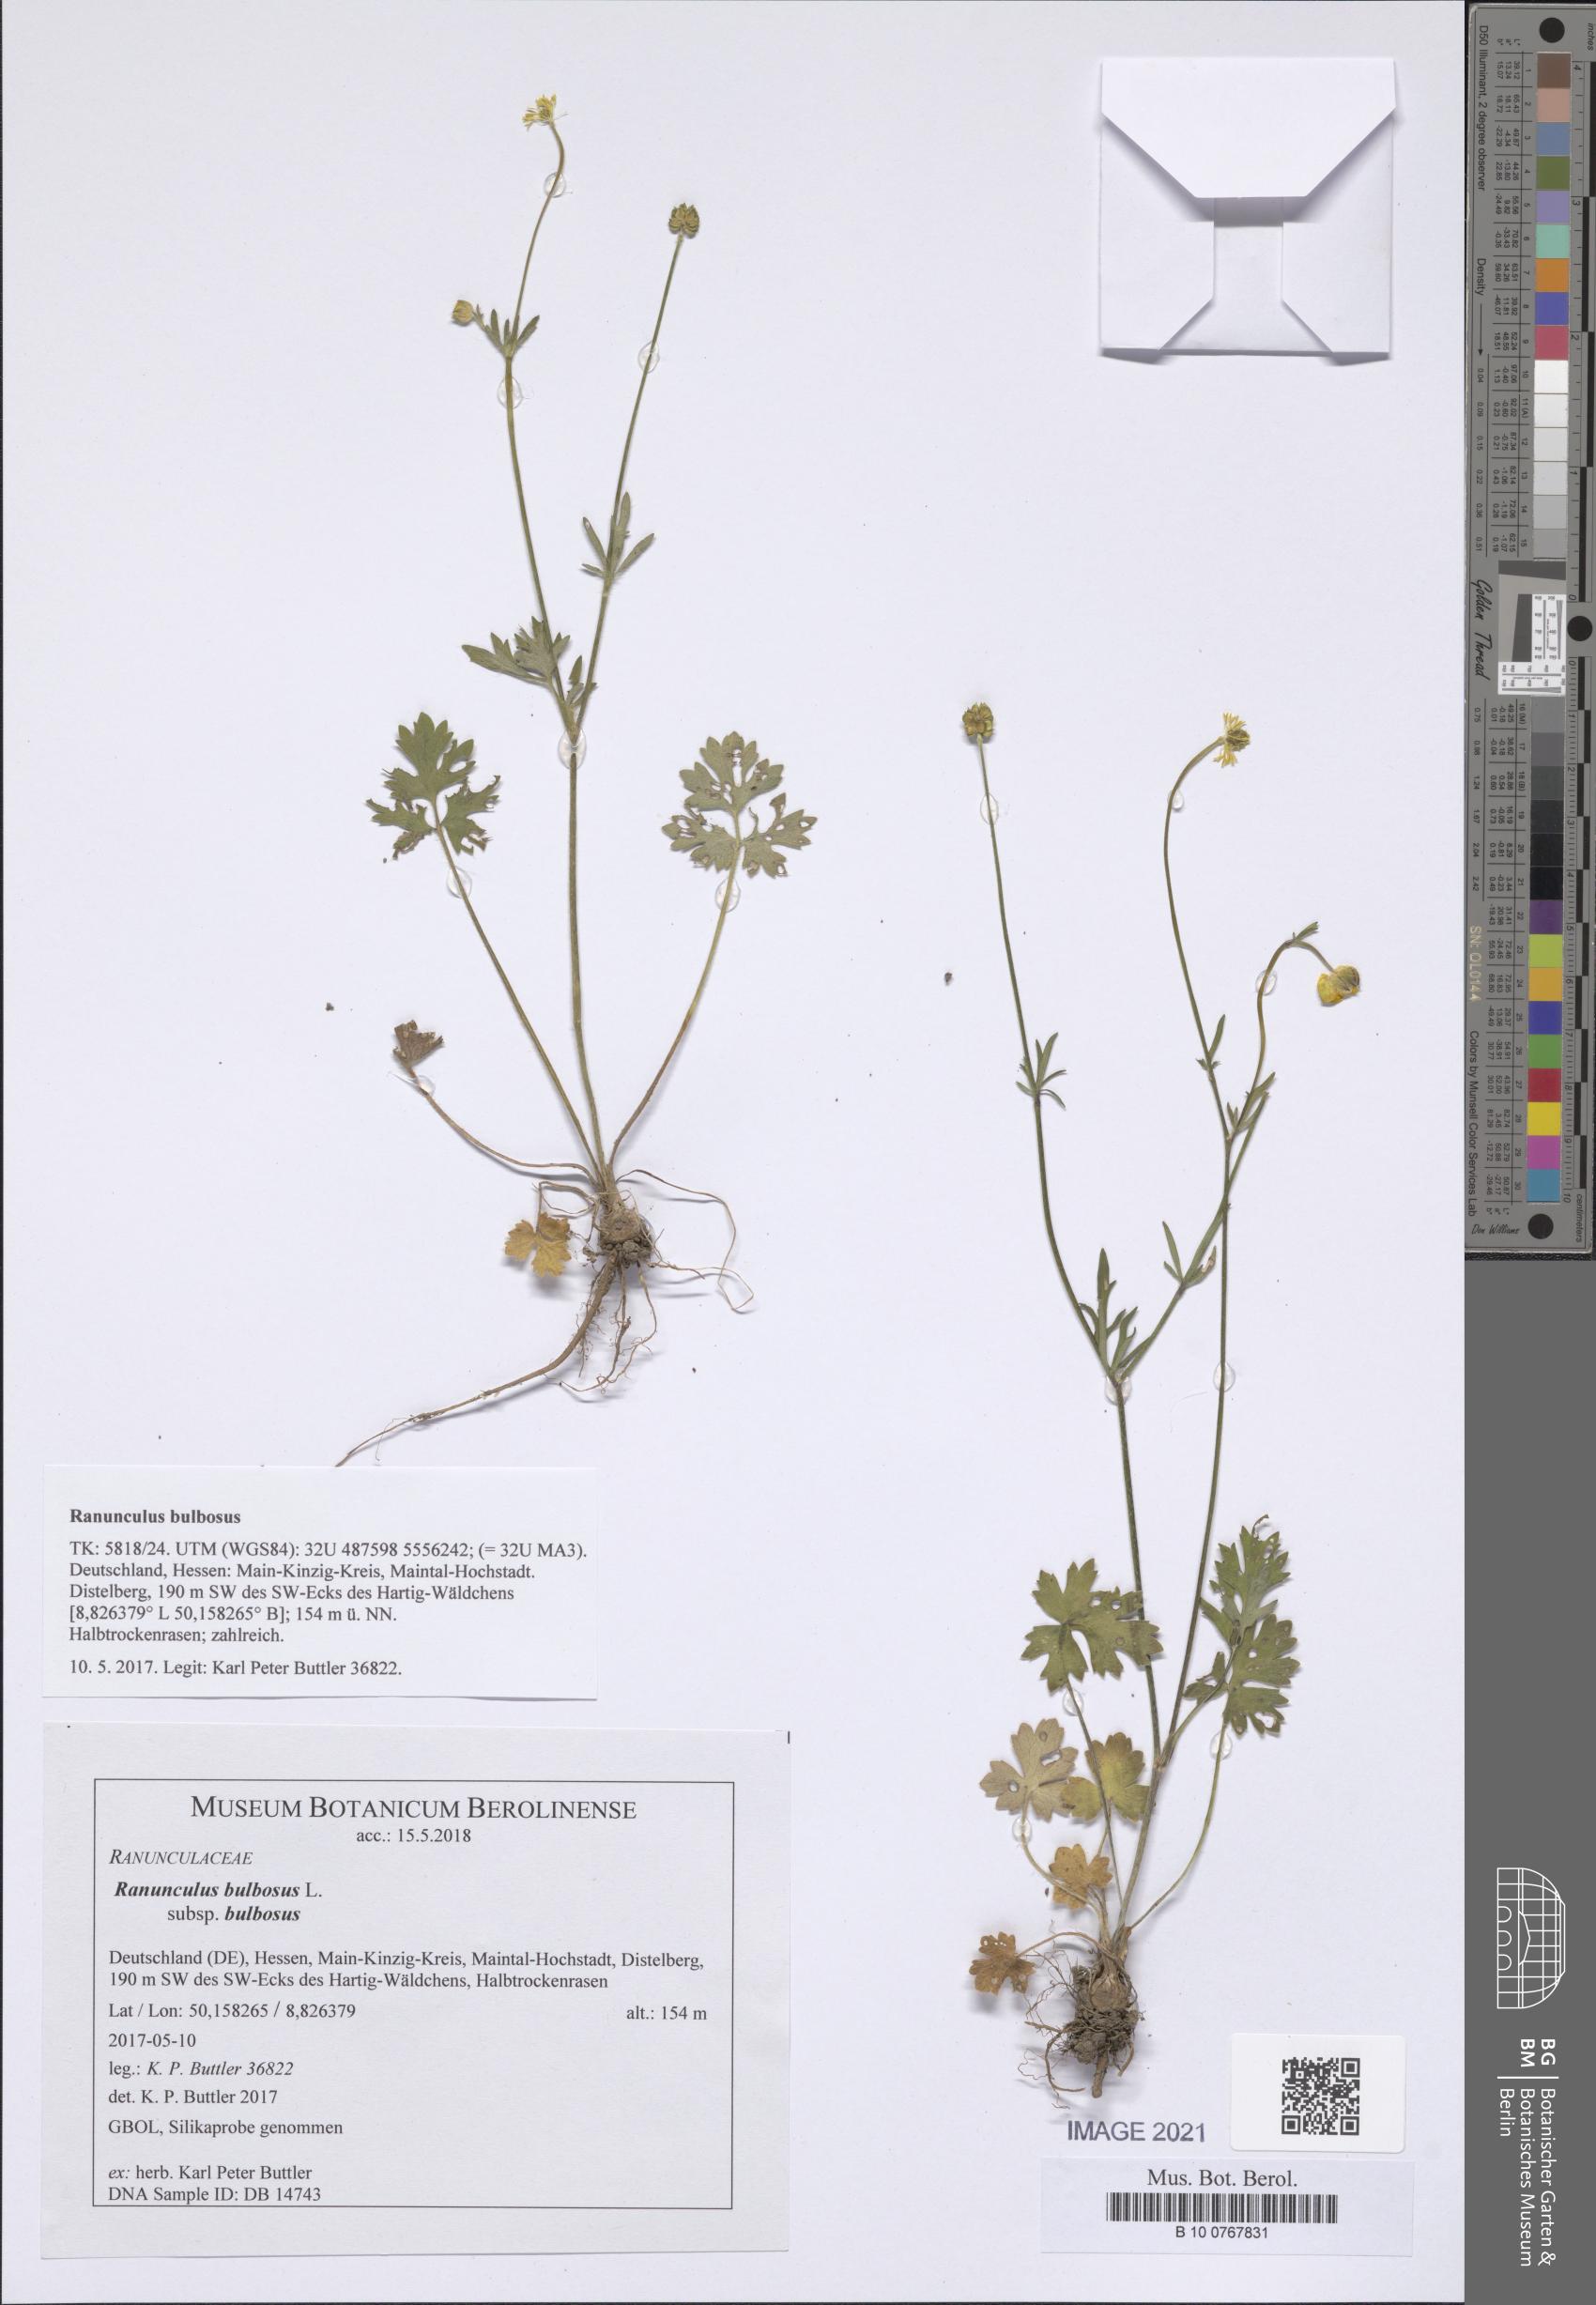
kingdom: Plantae
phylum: Tracheophyta
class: Magnoliopsida
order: Ranunculales
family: Ranunculaceae
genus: Ranunculus
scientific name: Ranunculus bulbosus
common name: Bulbous buttercup
